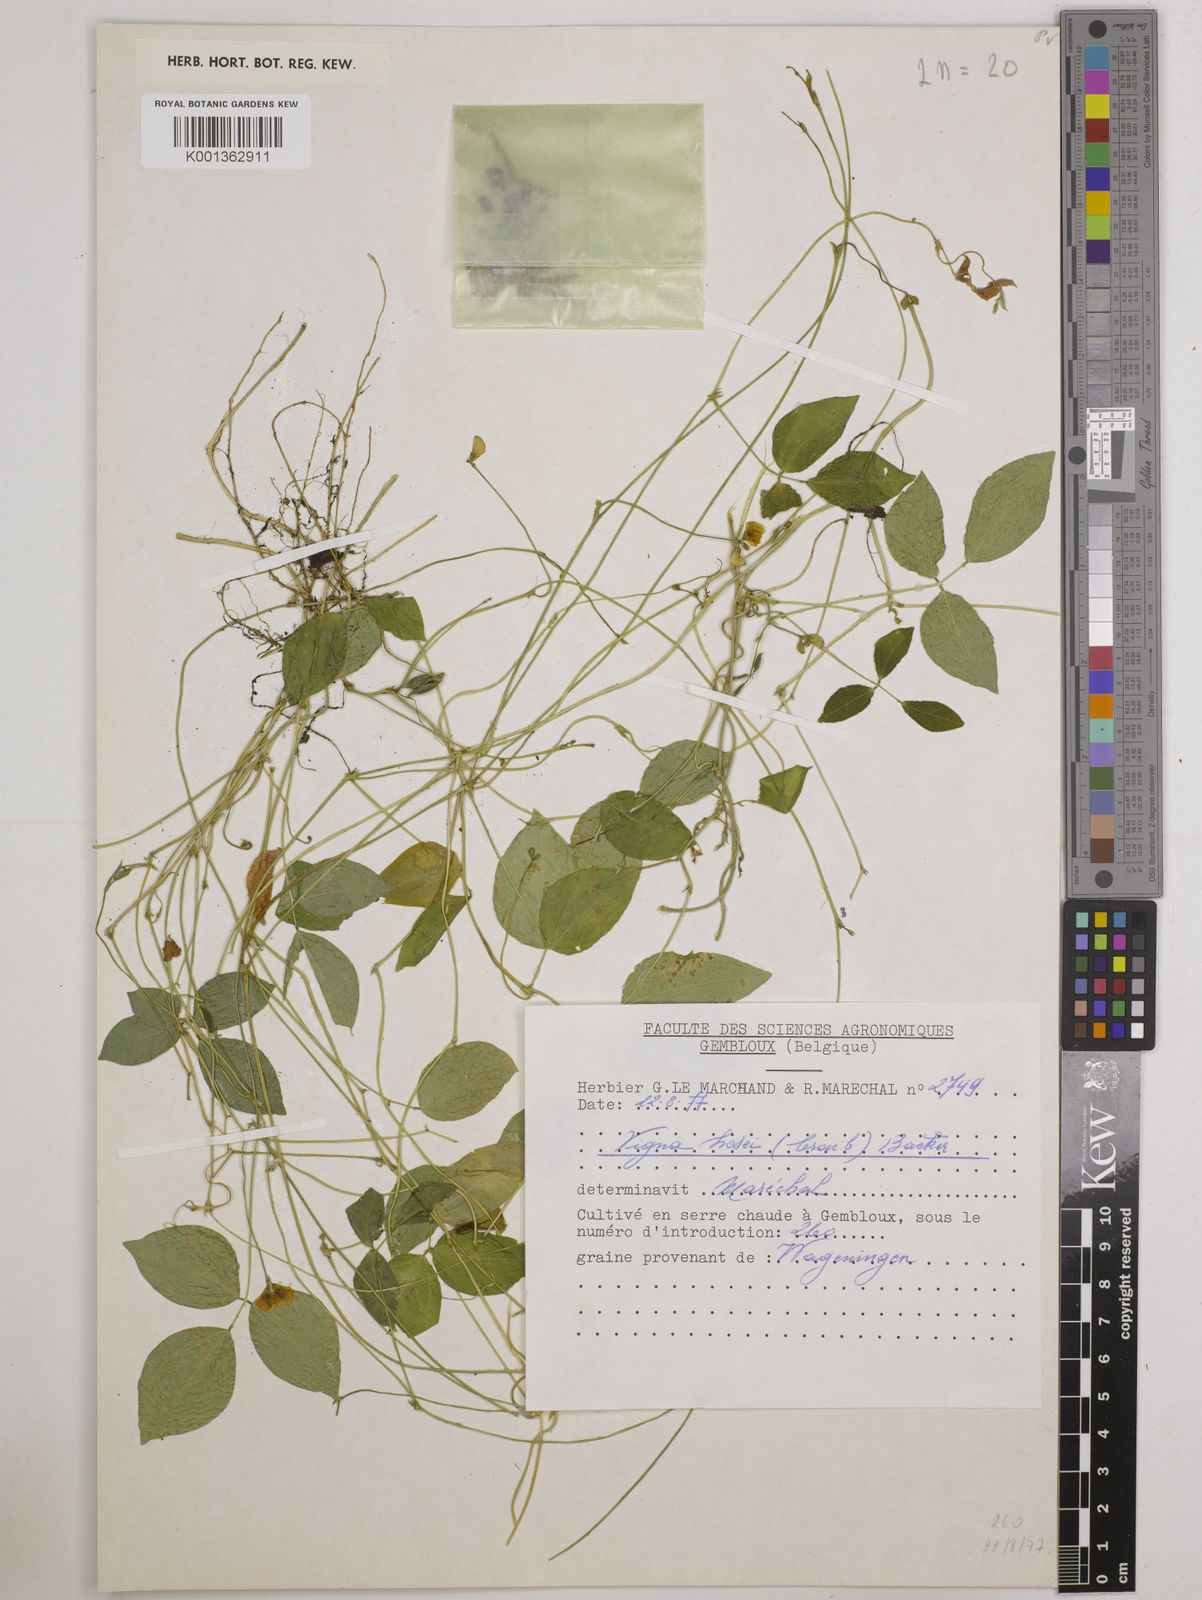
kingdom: Plantae
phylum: Tracheophyta
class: Magnoliopsida
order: Fabales
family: Fabaceae
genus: Vigna
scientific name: Vigna hosei
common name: Sarawak-bean
